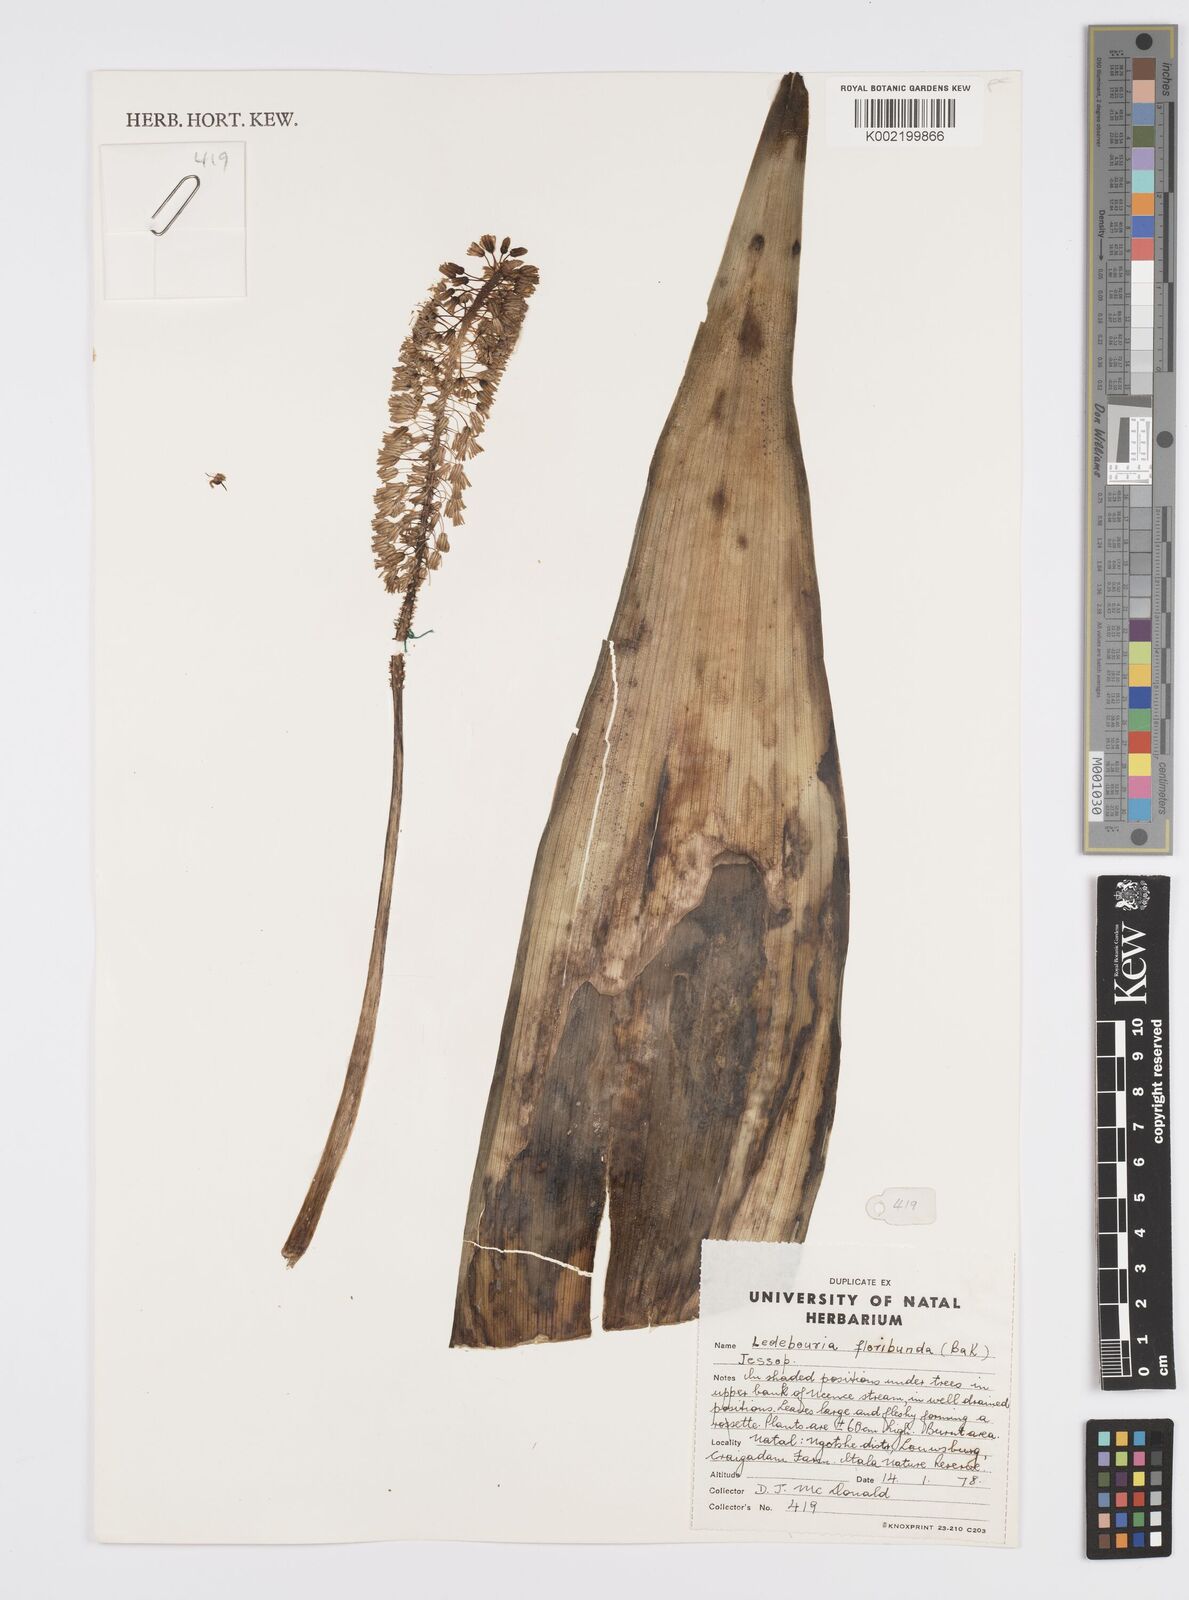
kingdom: Plantae
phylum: Tracheophyta
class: Liliopsida
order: Asparagales
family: Asparagaceae
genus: Ledebouria
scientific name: Ledebouria floribunda
